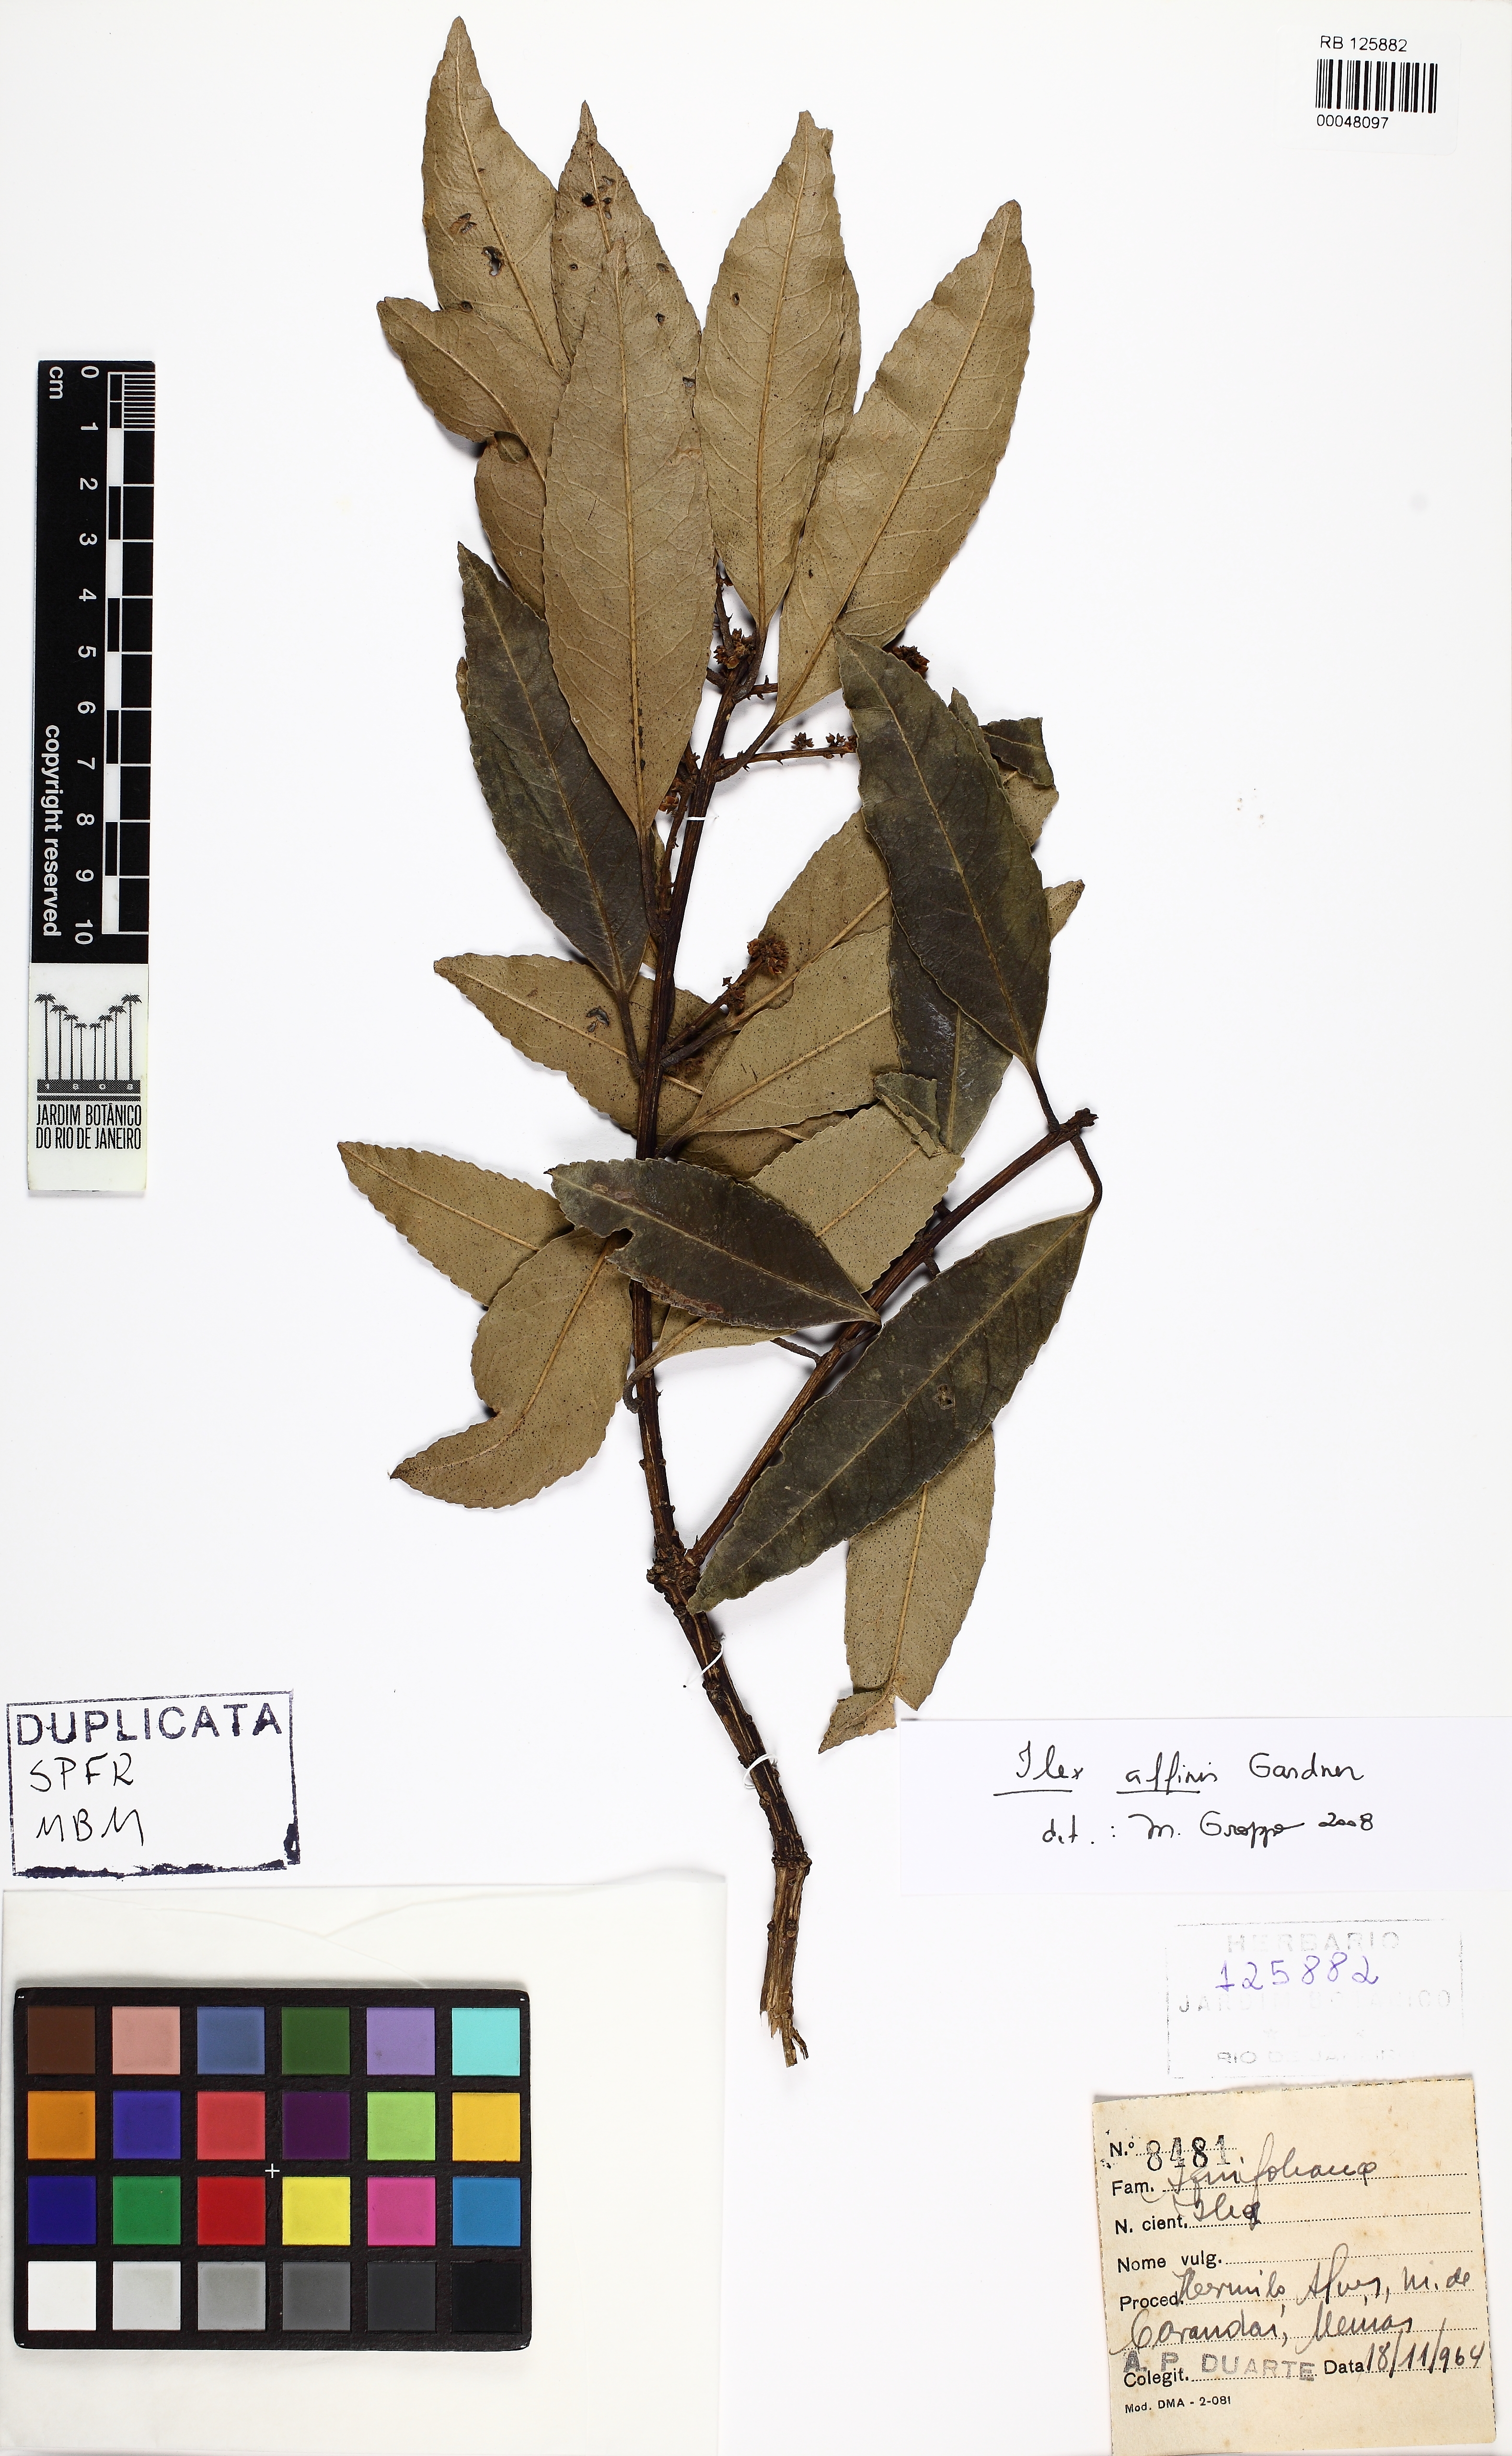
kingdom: Plantae
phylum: Tracheophyta
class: Magnoliopsida
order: Aquifoliales
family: Aquifoliaceae
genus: Ilex
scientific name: Ilex affinis
